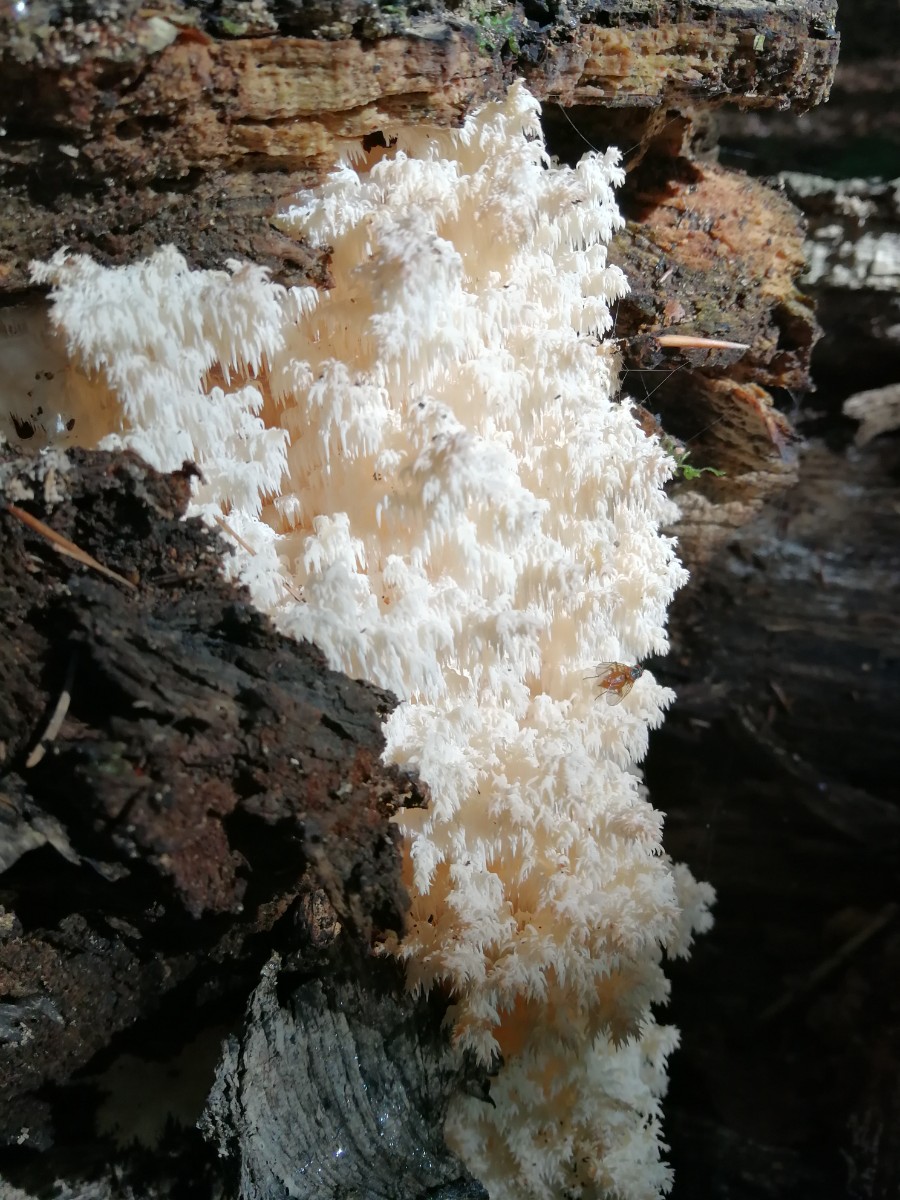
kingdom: Fungi
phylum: Basidiomycota
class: Agaricomycetes
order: Russulales
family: Hericiaceae
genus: Hericium
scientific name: Hericium coralloides
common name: koralpigsvamp
